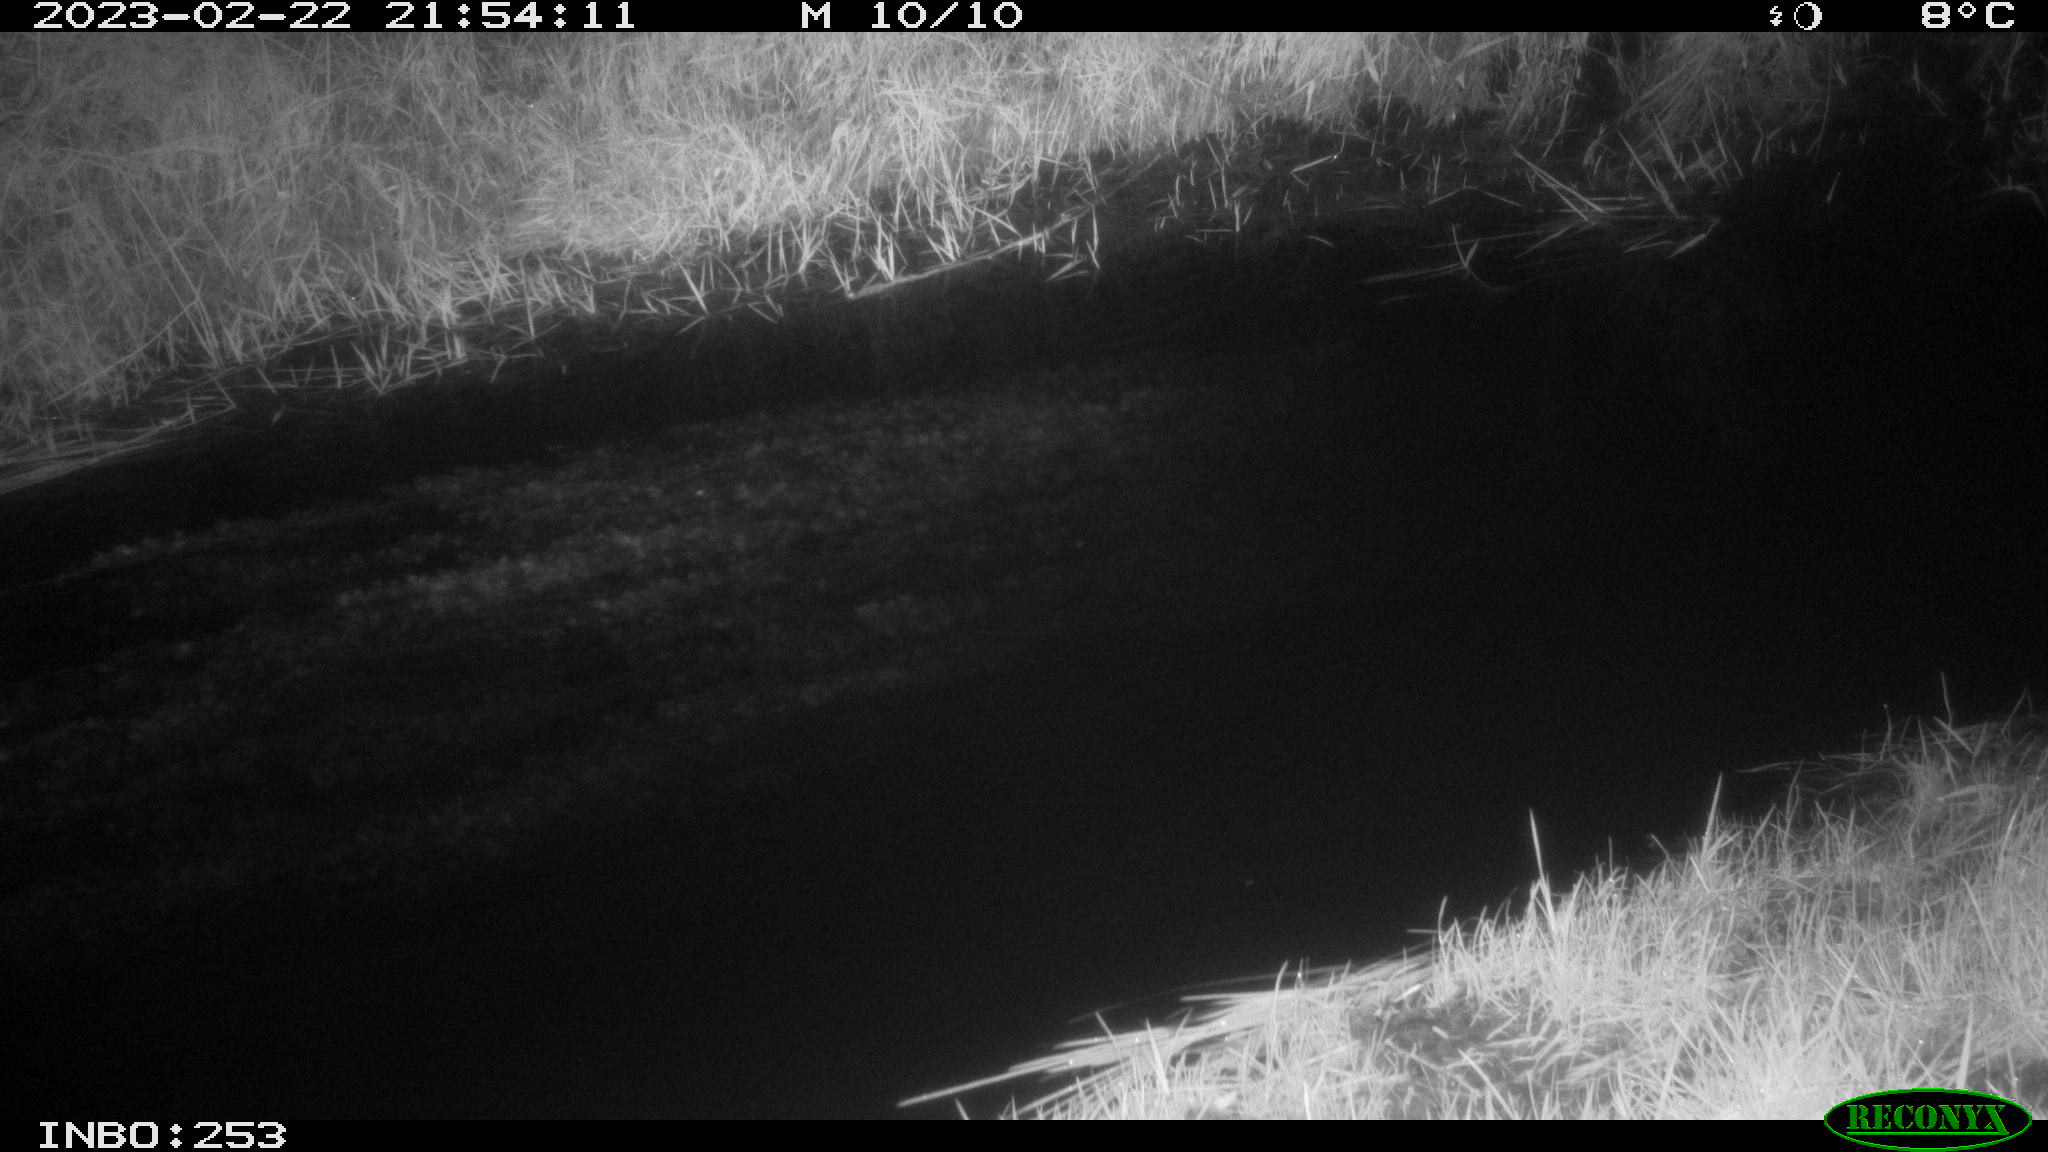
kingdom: Animalia
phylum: Chordata
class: Aves
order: Anseriformes
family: Anatidae
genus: Anas
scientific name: Anas
